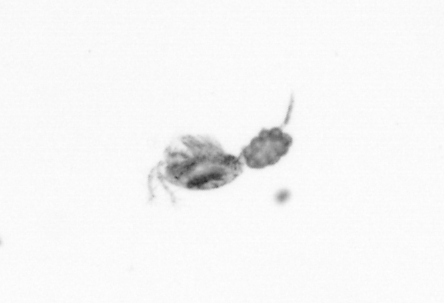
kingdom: Animalia
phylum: Arthropoda
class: Copepoda
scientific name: Copepoda
